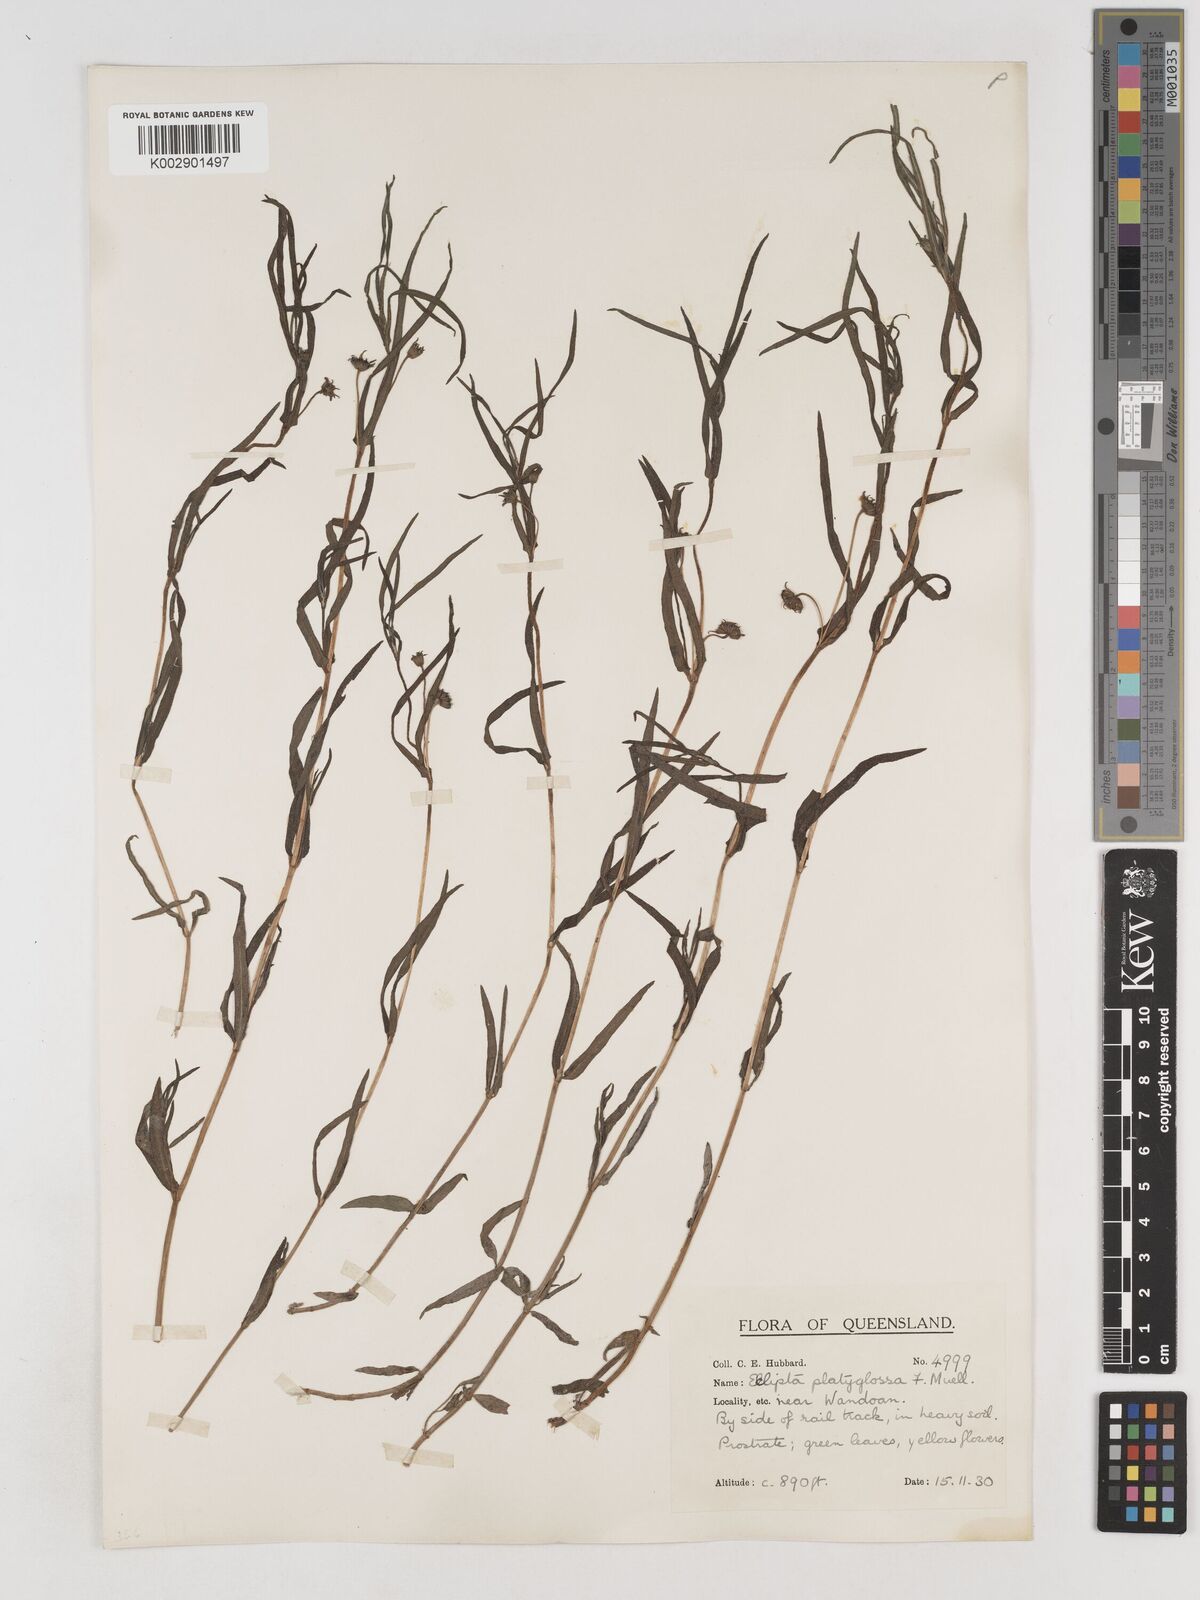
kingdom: Plantae
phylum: Tracheophyta
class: Magnoliopsida
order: Asterales
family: Asteraceae
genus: Eclipta
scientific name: Eclipta platyglossa
